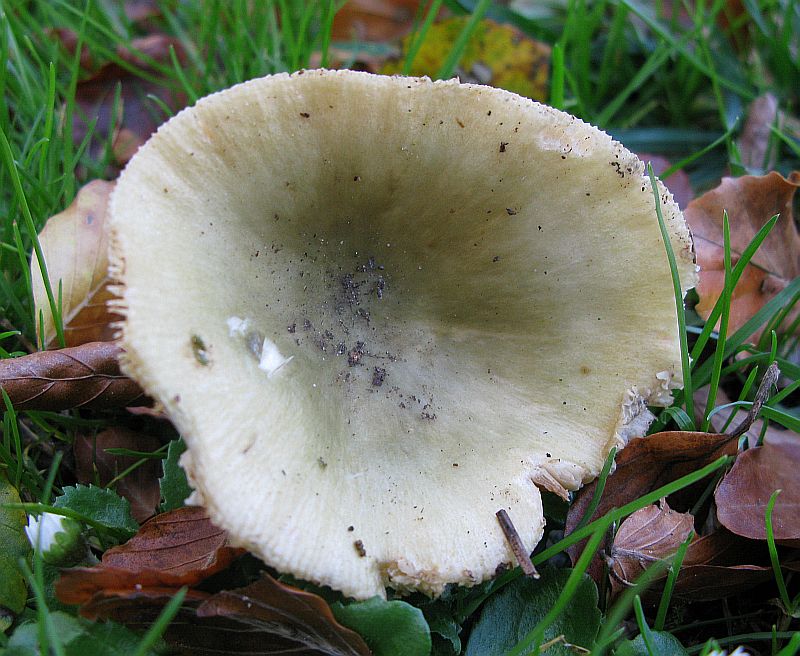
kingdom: Fungi
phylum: Basidiomycota
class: Agaricomycetes
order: Russulales
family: Russulaceae
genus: Russula
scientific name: Russula aeruginea
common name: græsgrøn skørhat
